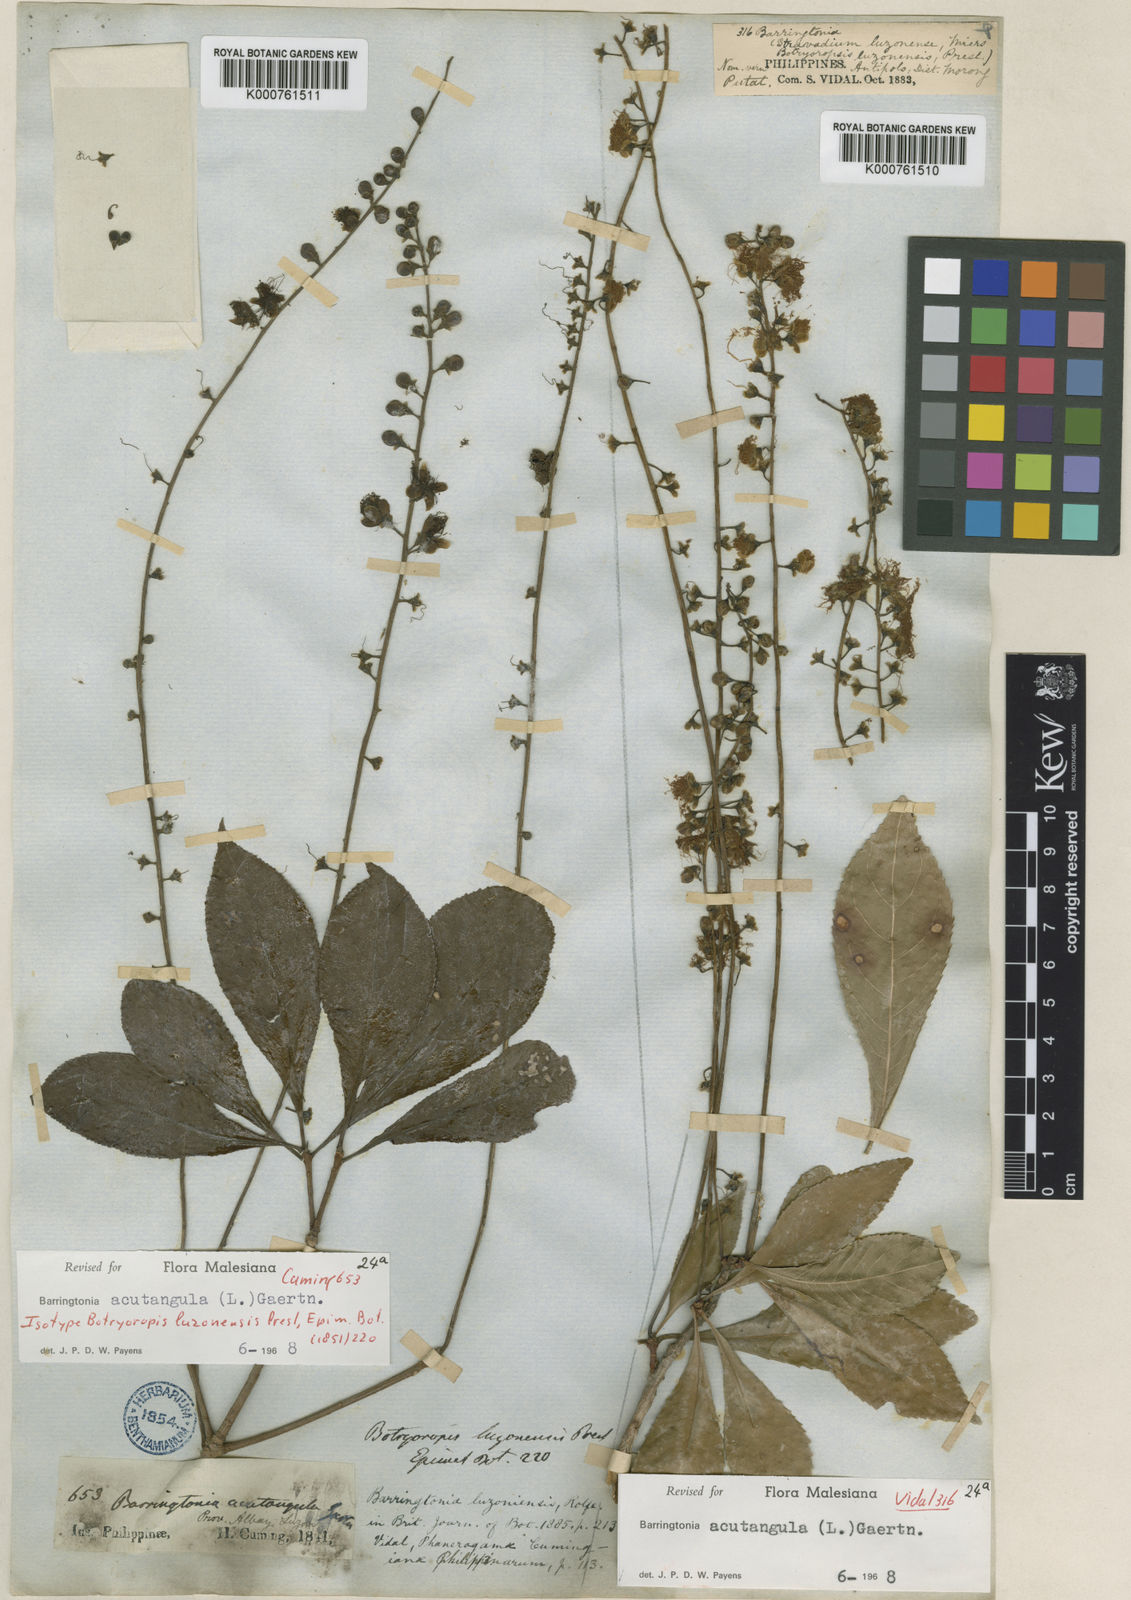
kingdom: Plantae
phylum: Tracheophyta
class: Magnoliopsida
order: Ericales
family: Lecythidaceae
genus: Barringtonia
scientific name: Barringtonia acutangula
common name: Freshwater mangrove
